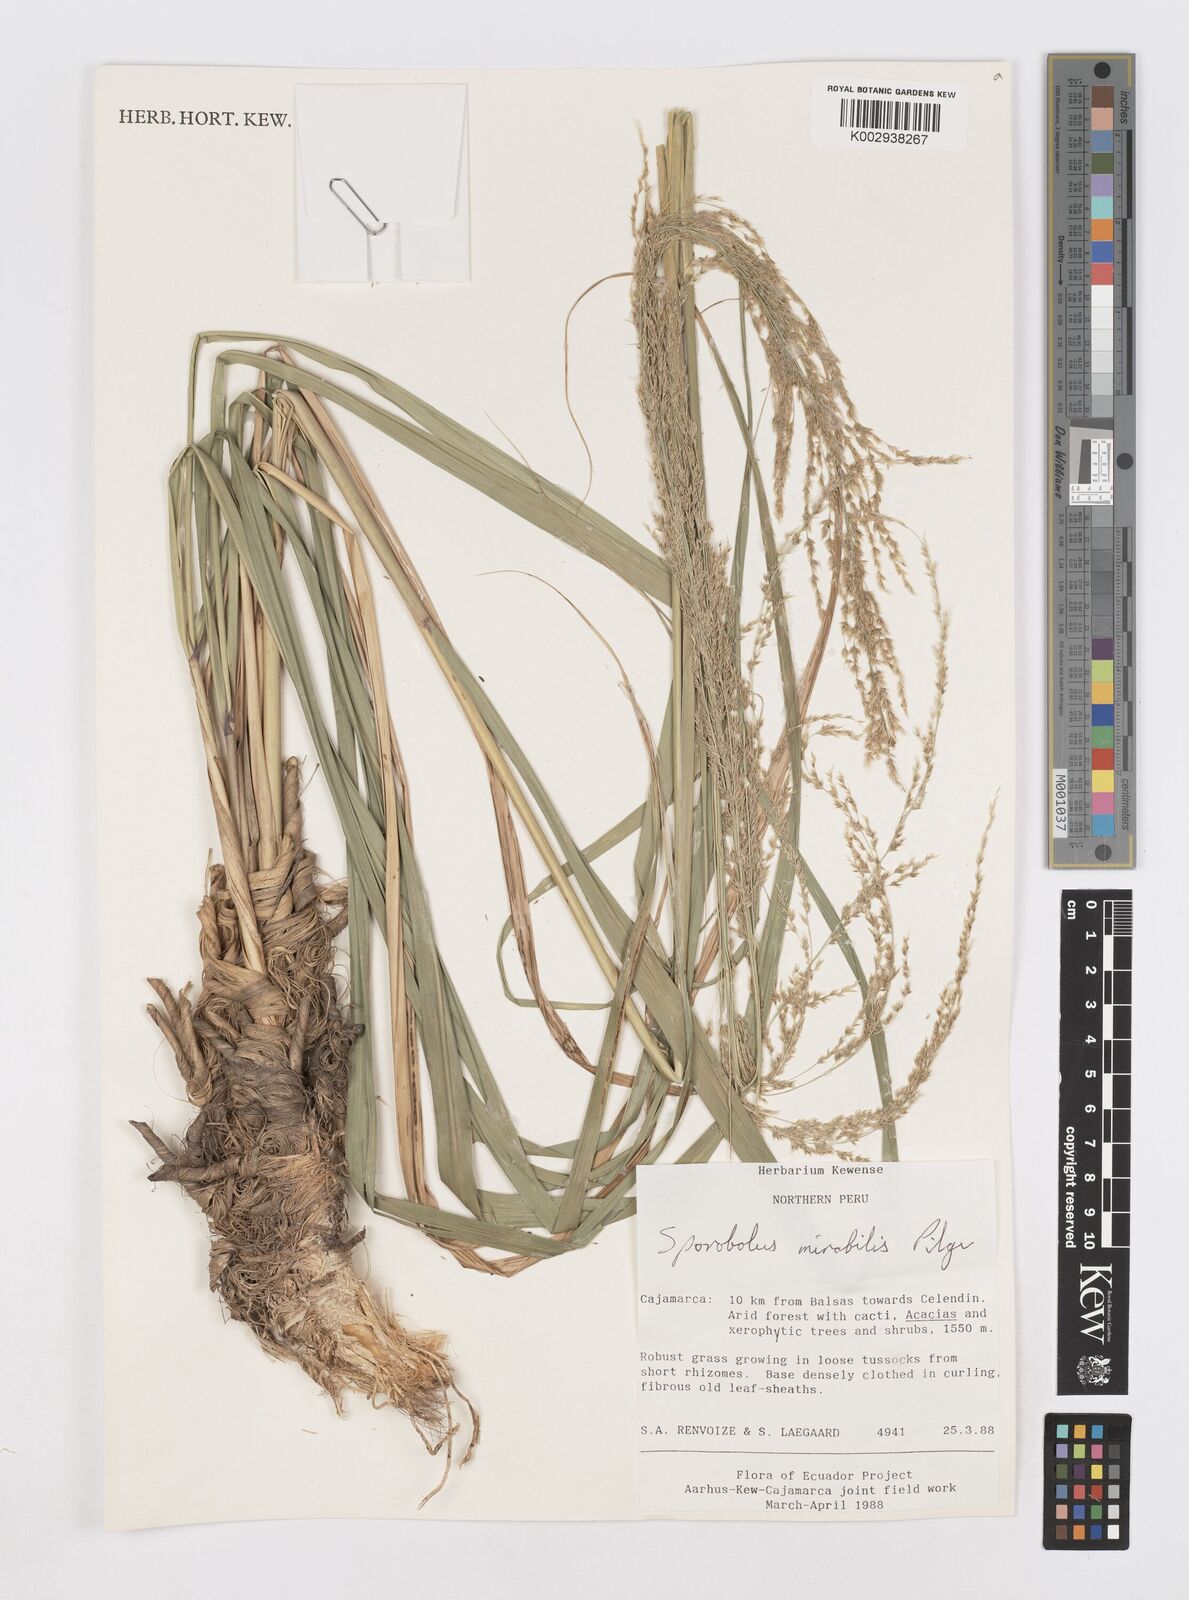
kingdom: Plantae
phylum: Tracheophyta
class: Liliopsida
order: Poales
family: Poaceae
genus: Sporobolus
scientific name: Sporobolus mirabilis
